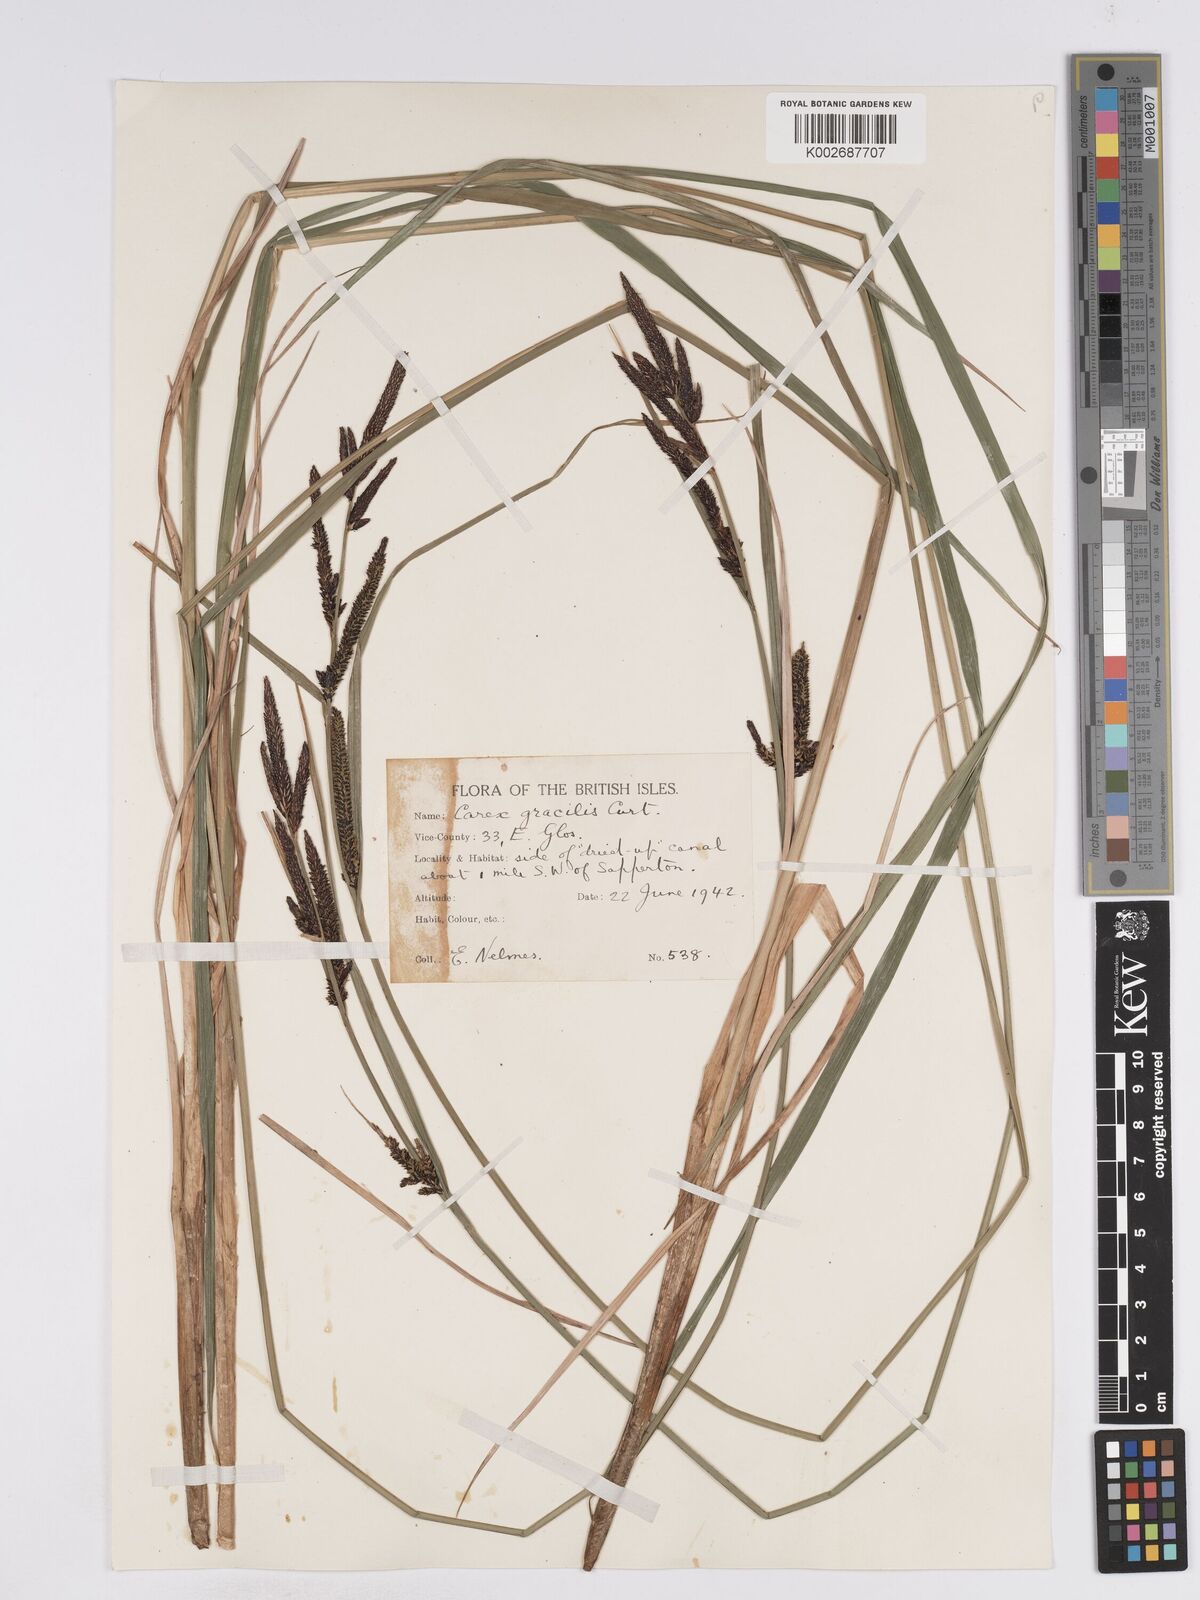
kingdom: Plantae
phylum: Tracheophyta
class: Liliopsida
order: Poales
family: Cyperaceae
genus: Carex
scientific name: Carex acuta
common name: Slender tufted-sedge
